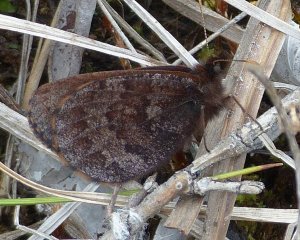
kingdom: Animalia
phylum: Arthropoda
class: Insecta
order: Lepidoptera
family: Nymphalidae
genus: Erebia
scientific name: Erebia rossii
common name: Ross's Alpine
